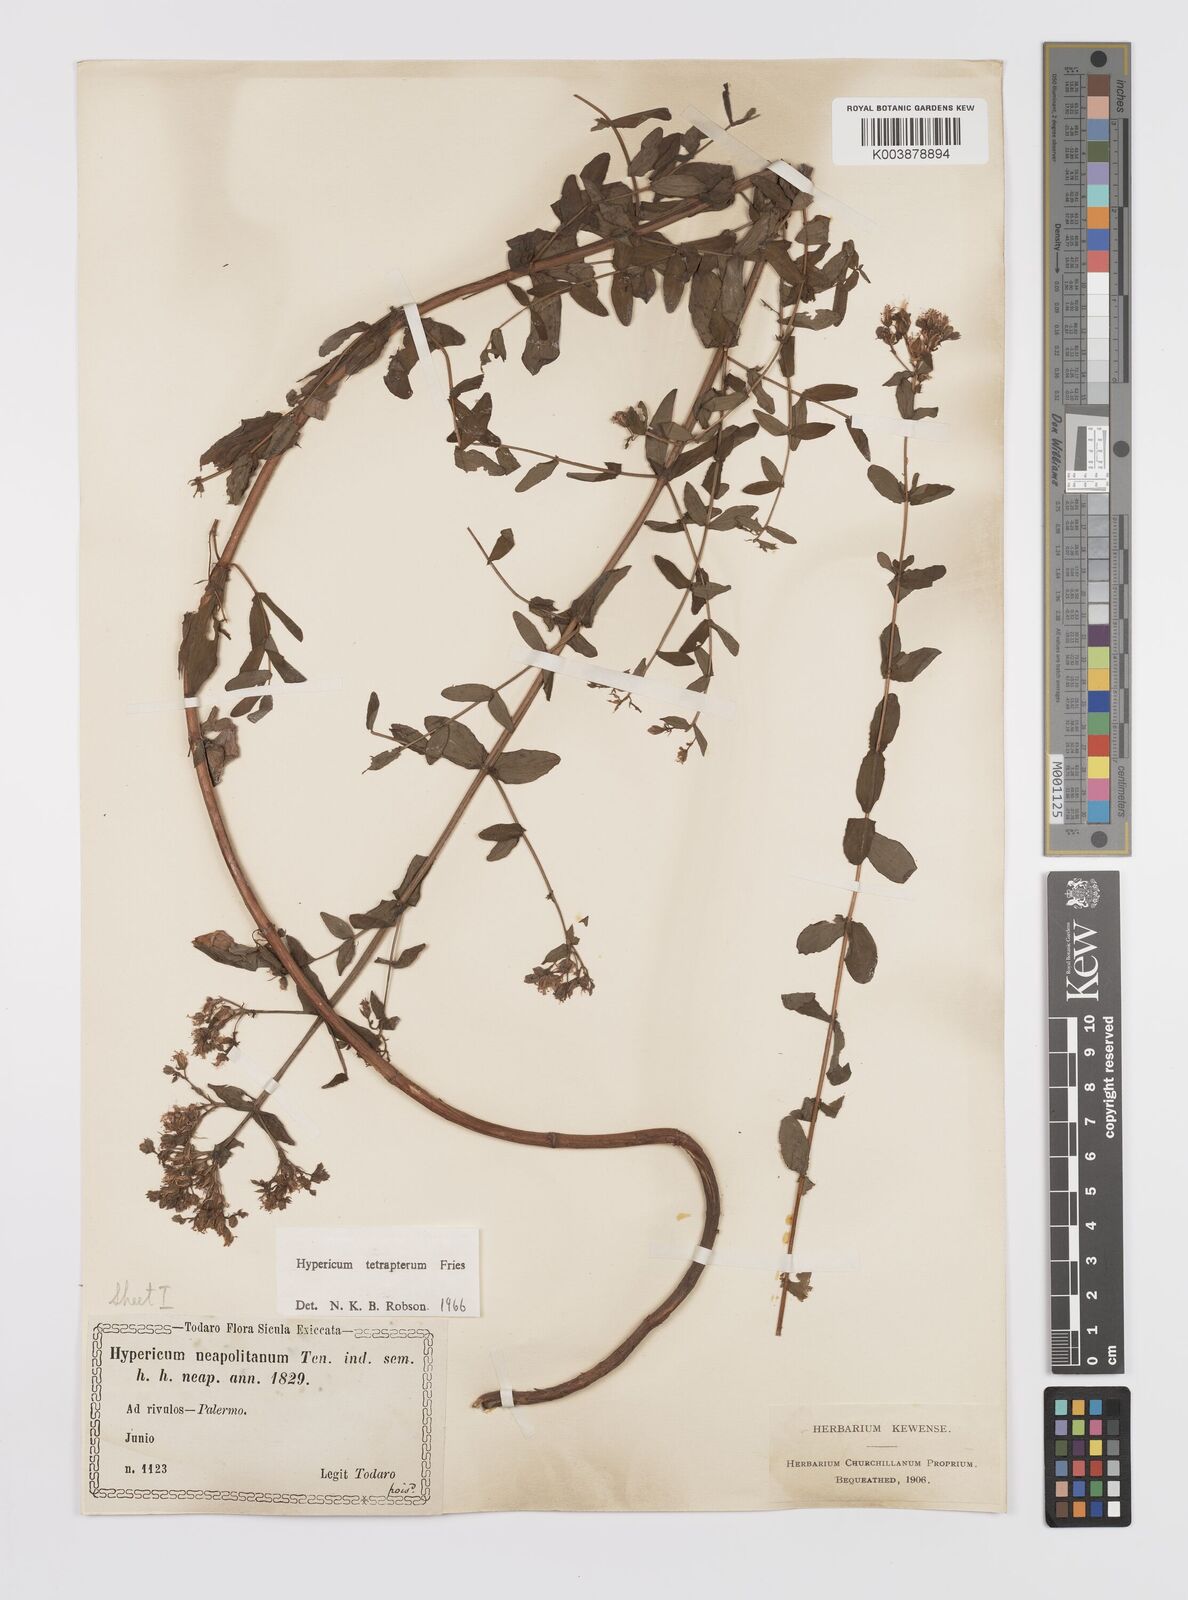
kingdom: Plantae
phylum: Tracheophyta
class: Magnoliopsida
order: Malpighiales
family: Hypericaceae
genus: Hypericum
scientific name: Hypericum tetrapterum
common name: Square-stalked st. john's-wort
